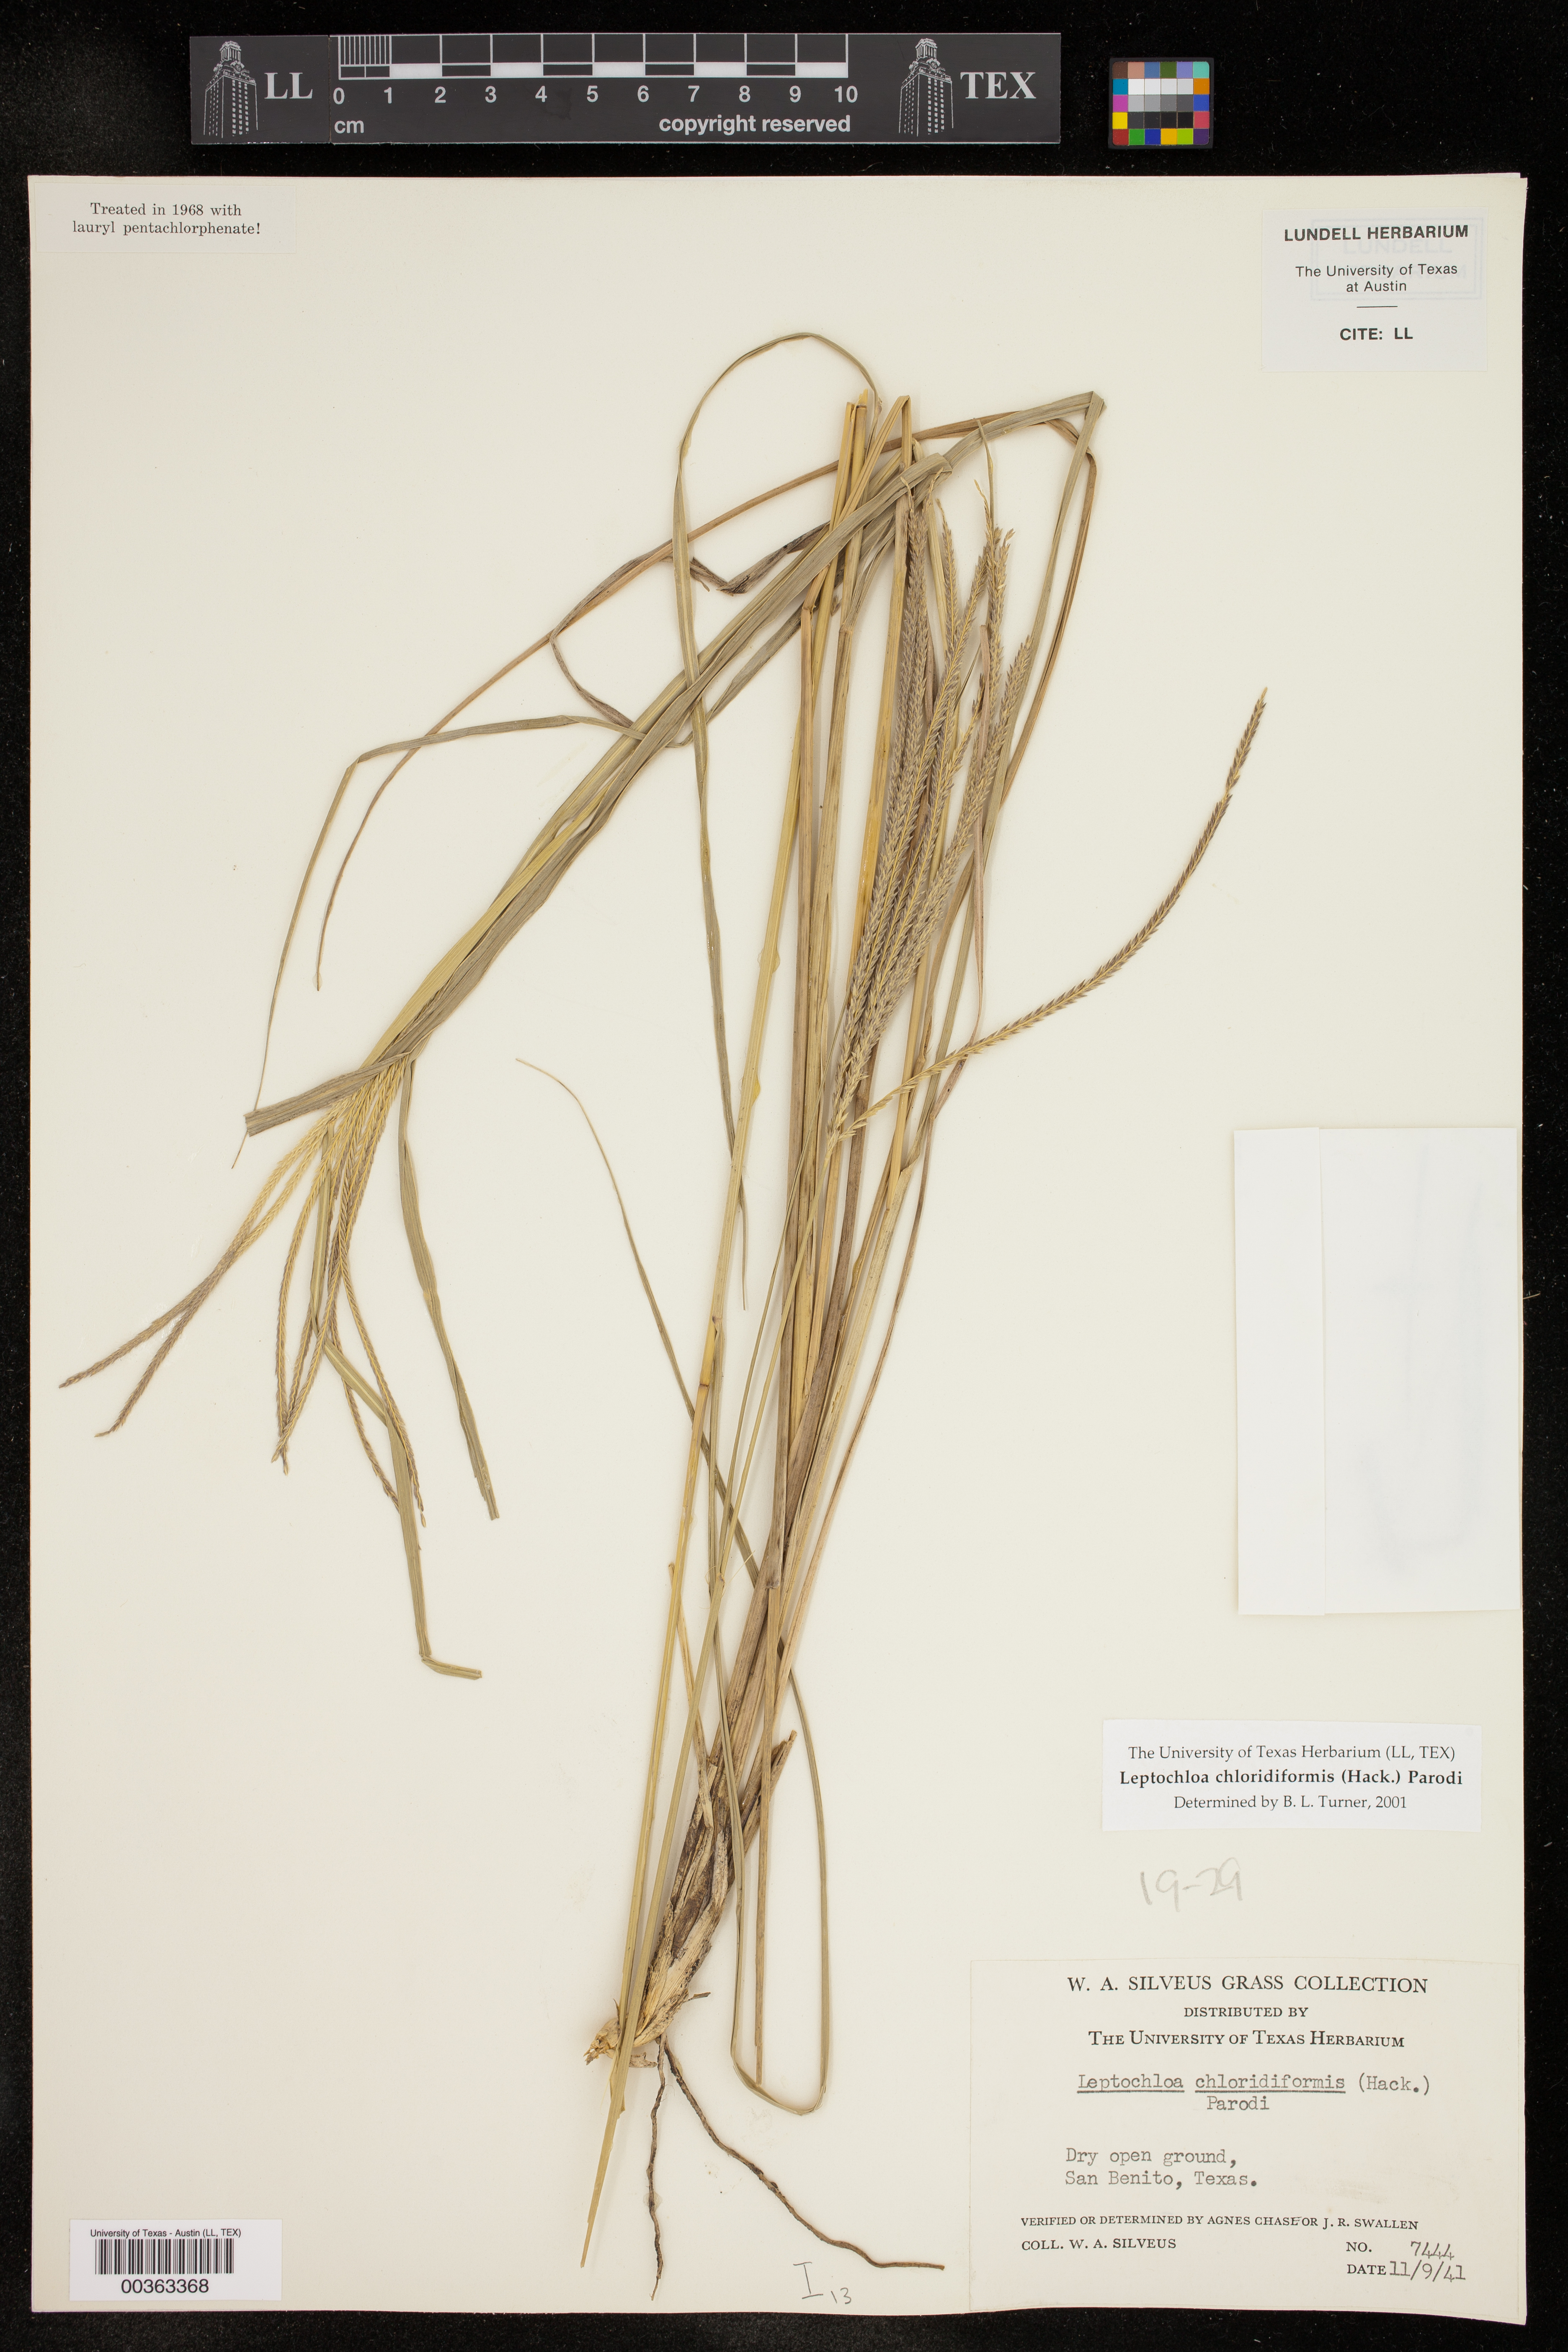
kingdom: Plantae
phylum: Tracheophyta
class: Liliopsida
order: Poales
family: Poaceae
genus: Leptochloa
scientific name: Leptochloa chloridiformis
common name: Argentine sprangletop
